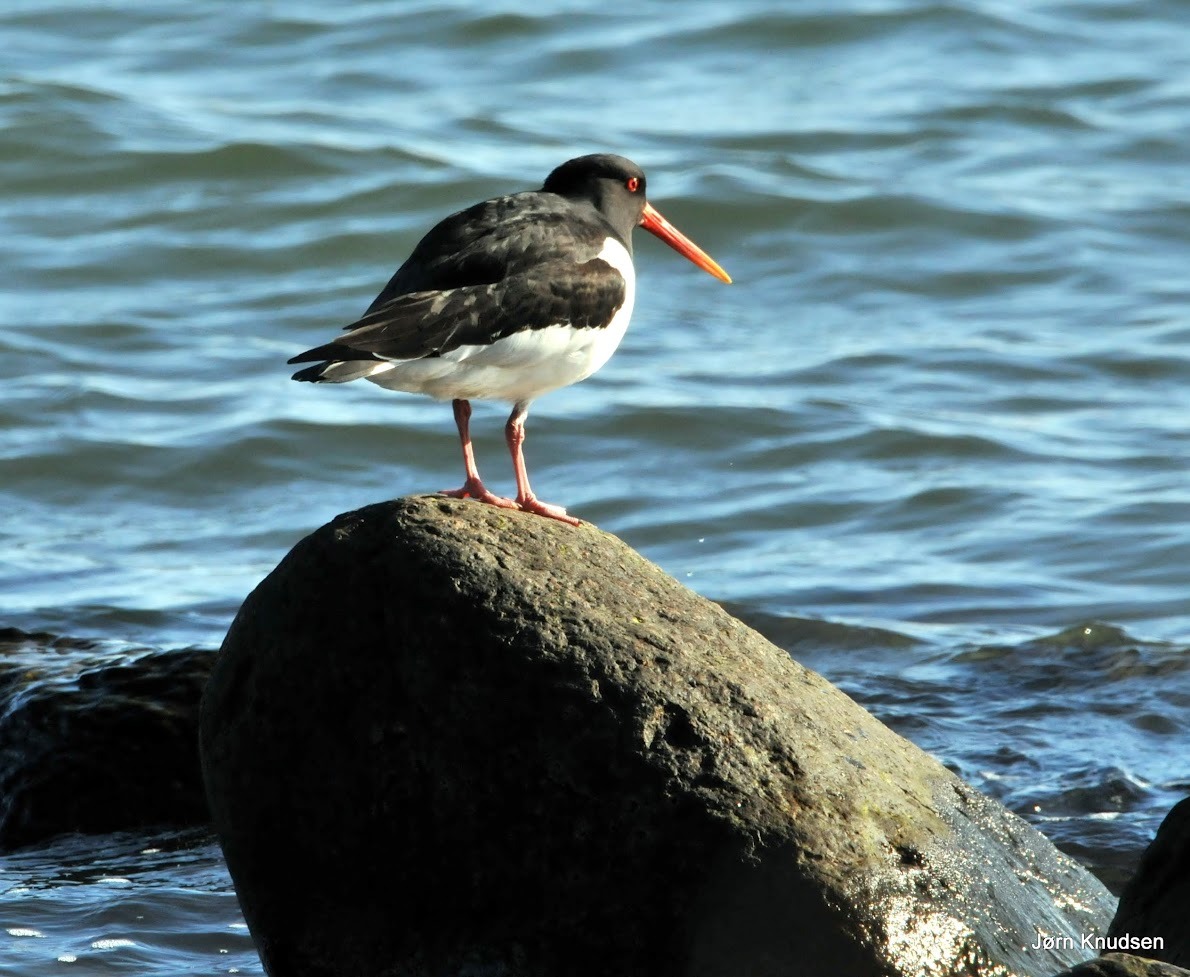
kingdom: Animalia
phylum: Chordata
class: Aves
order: Charadriiformes
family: Haematopodidae
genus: Haematopus
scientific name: Haematopus ostralegus
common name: Strandskade
